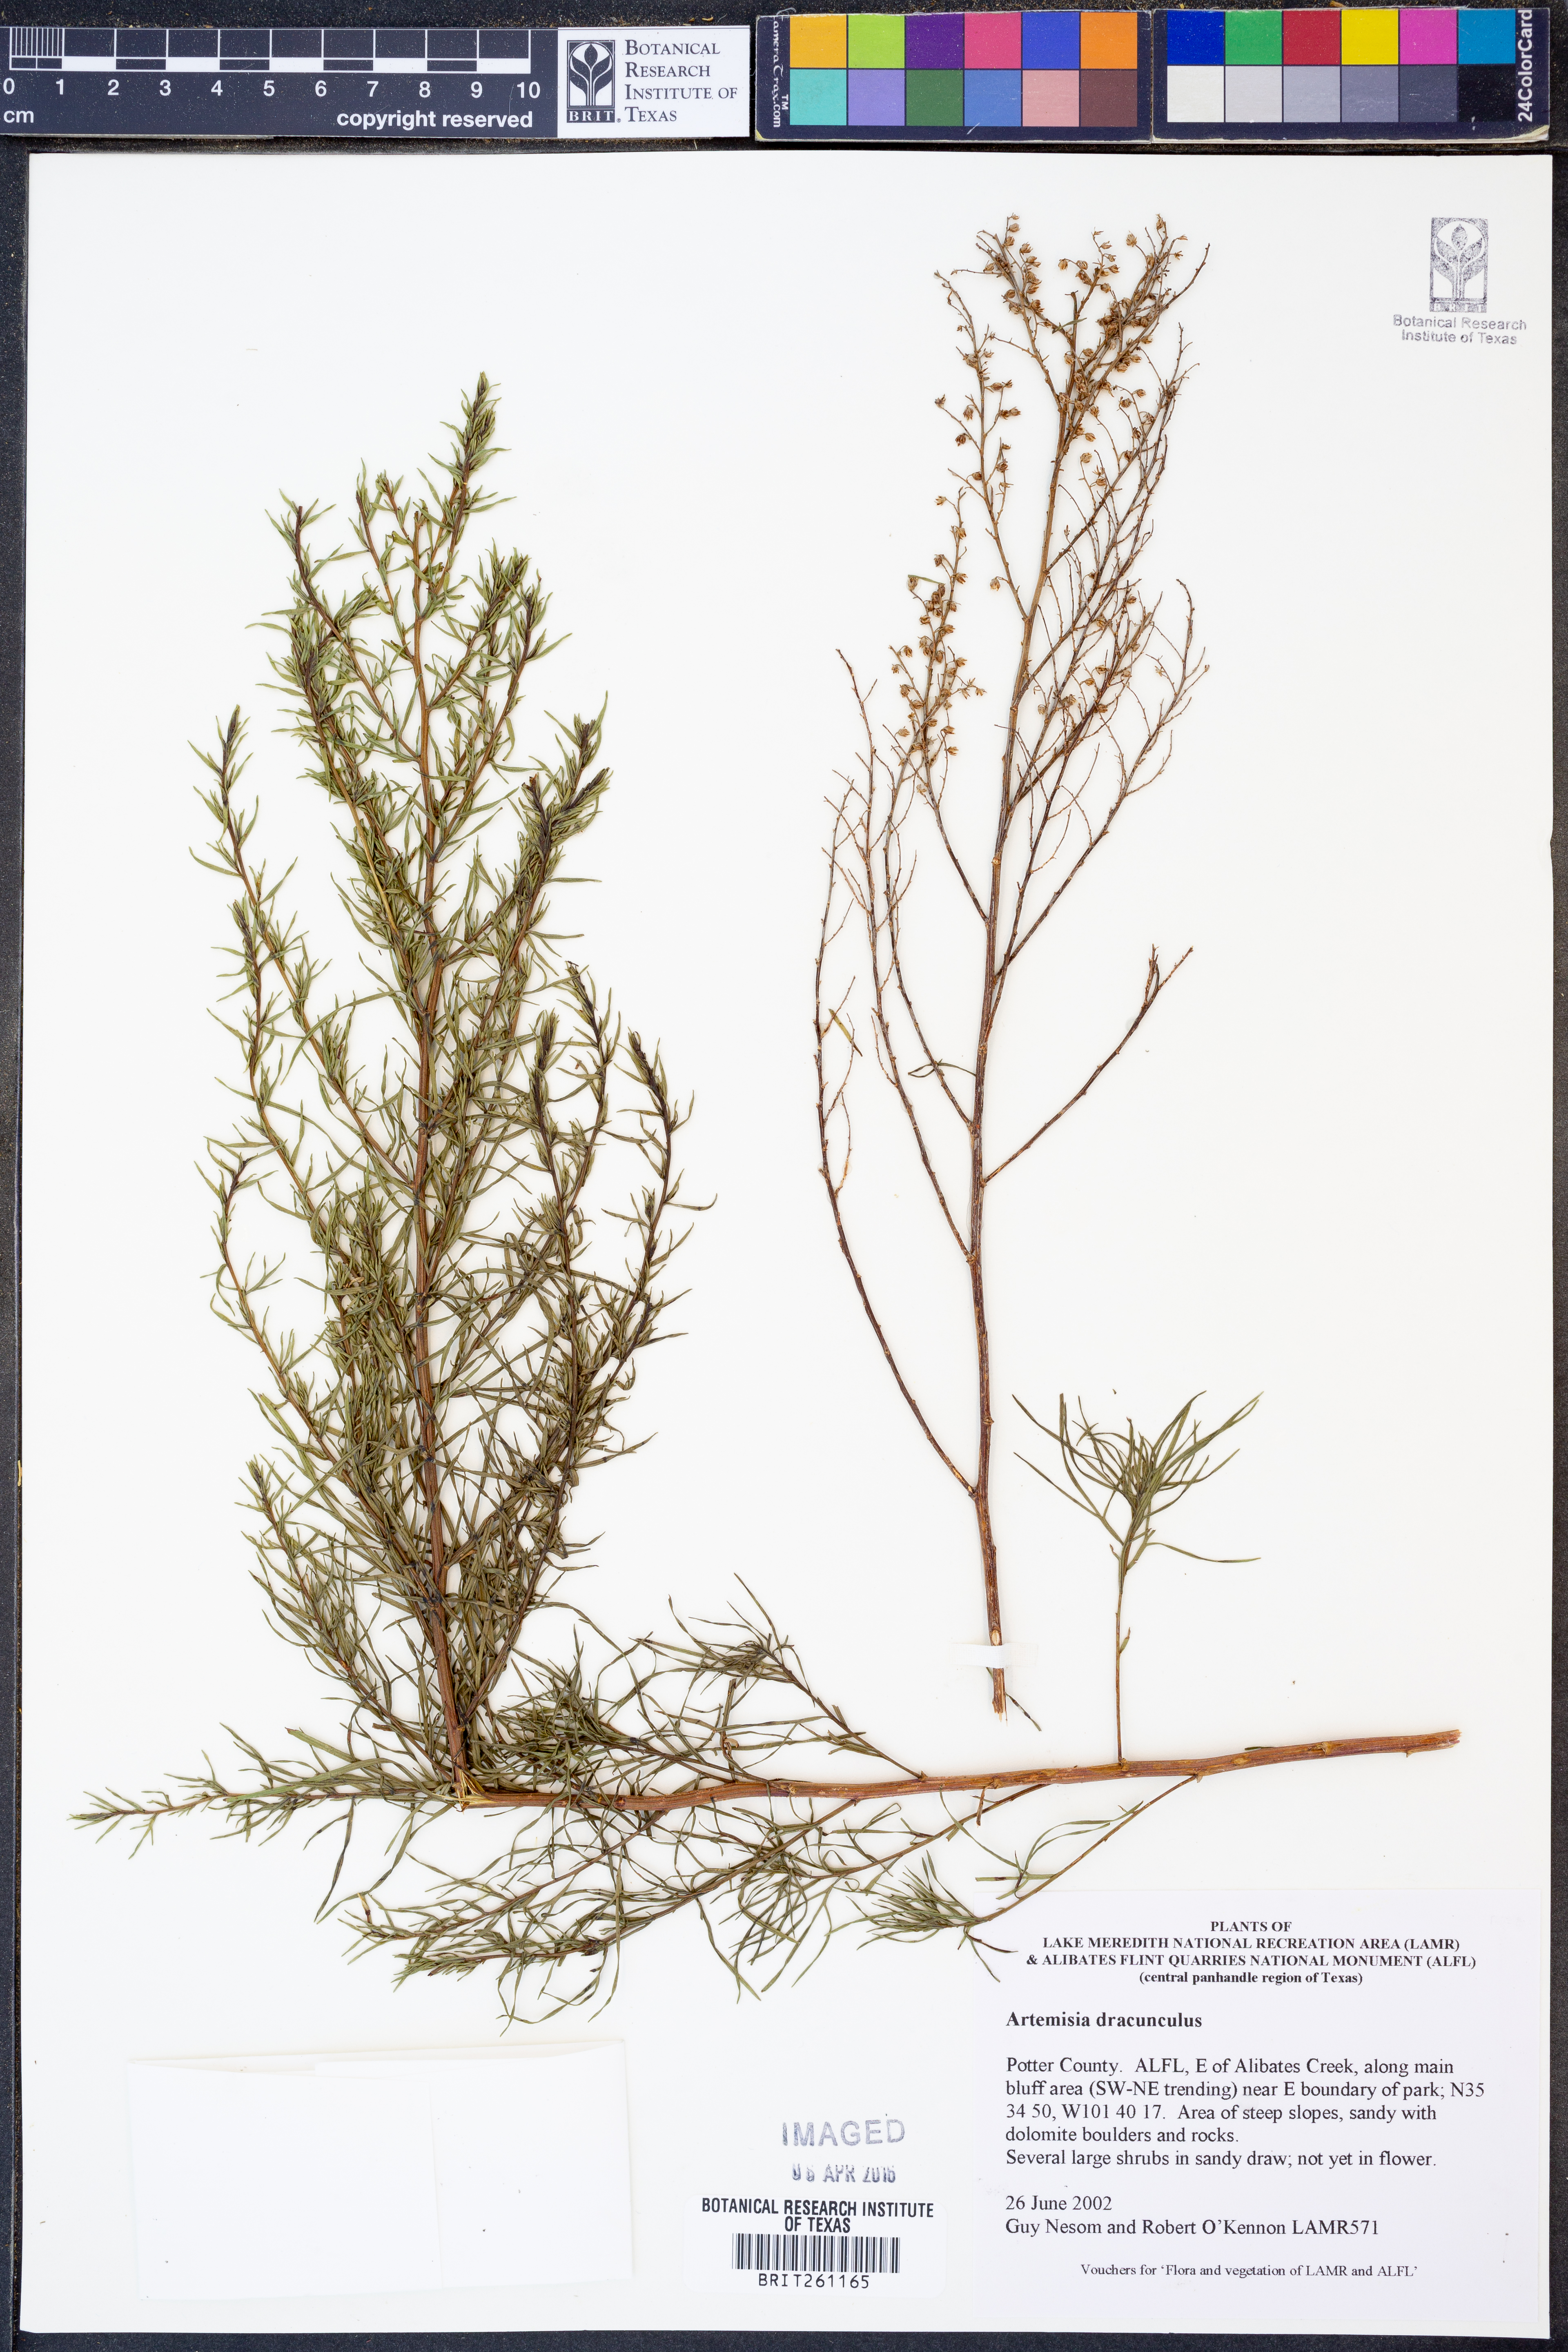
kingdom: Plantae
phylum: Tracheophyta
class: Magnoliopsida
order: Asterales
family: Asteraceae
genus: Artemisia
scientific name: Artemisia dracunculus
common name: Tarragon
